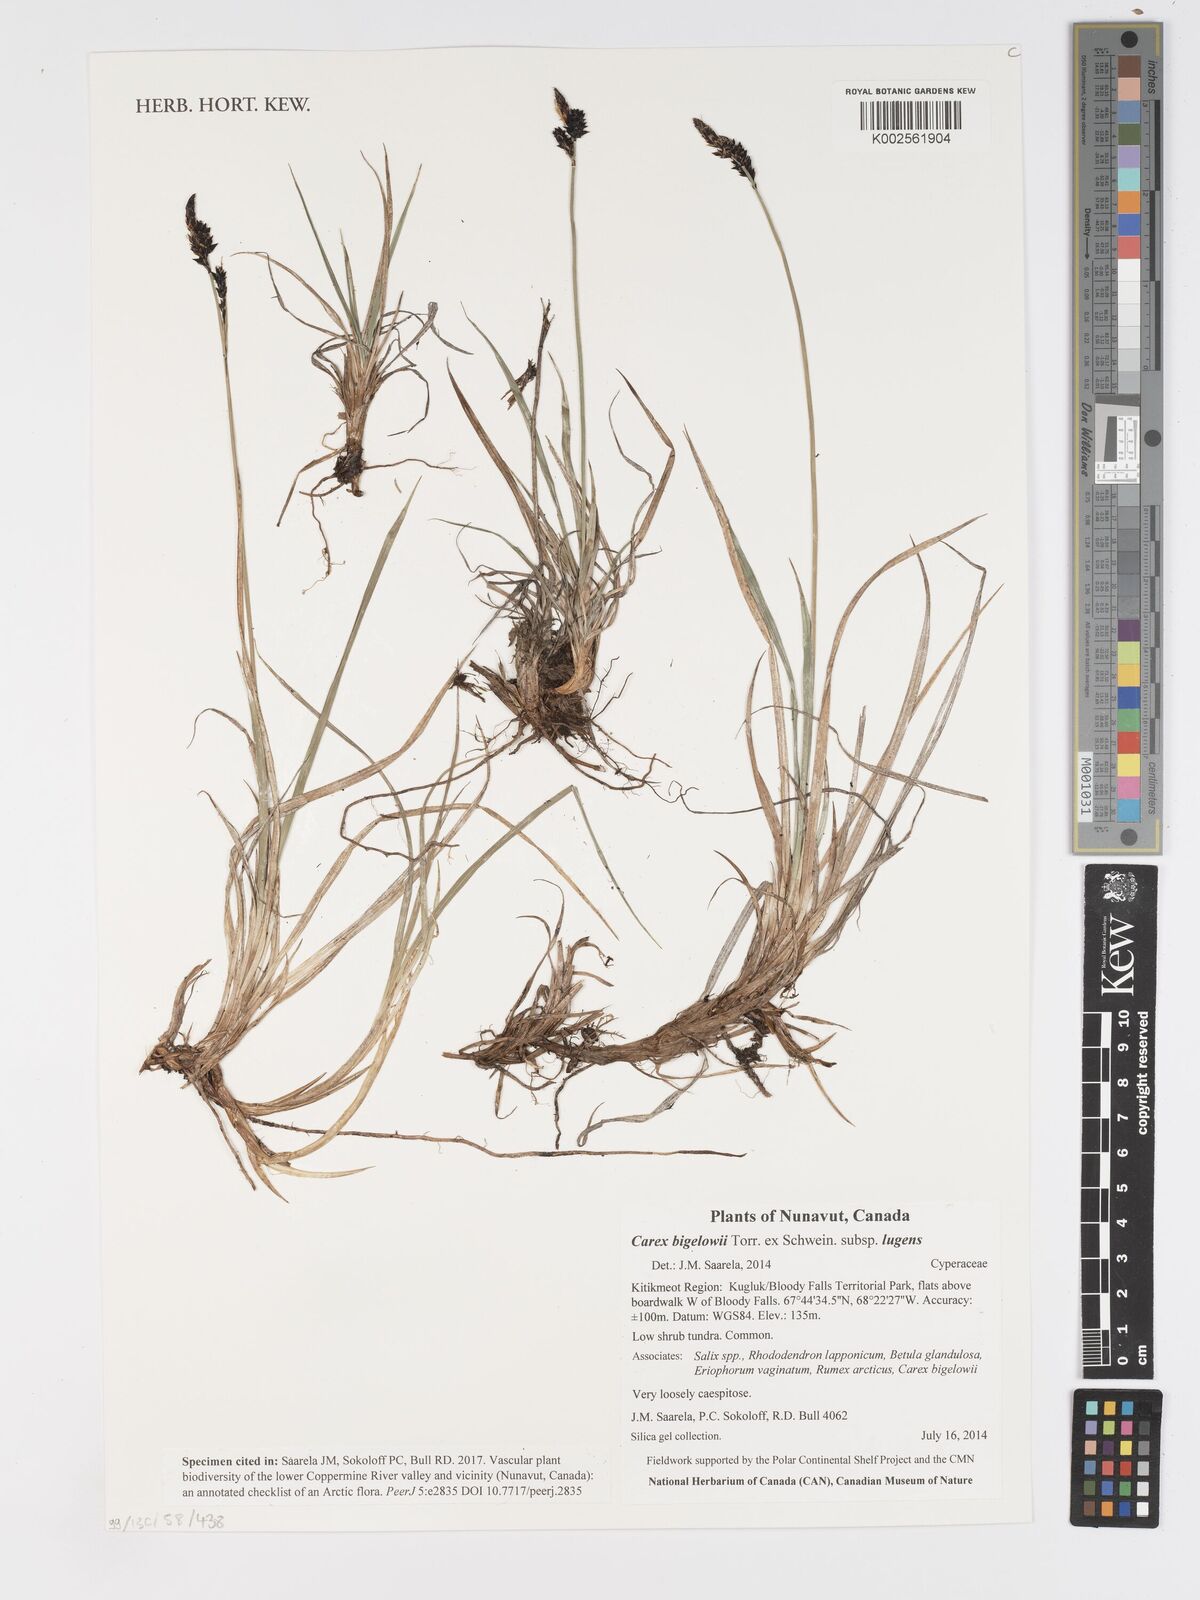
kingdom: Plantae
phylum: Tracheophyta
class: Liliopsida
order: Poales
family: Cyperaceae
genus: Carex
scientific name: Carex bigelowii
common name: Stiff sedge
